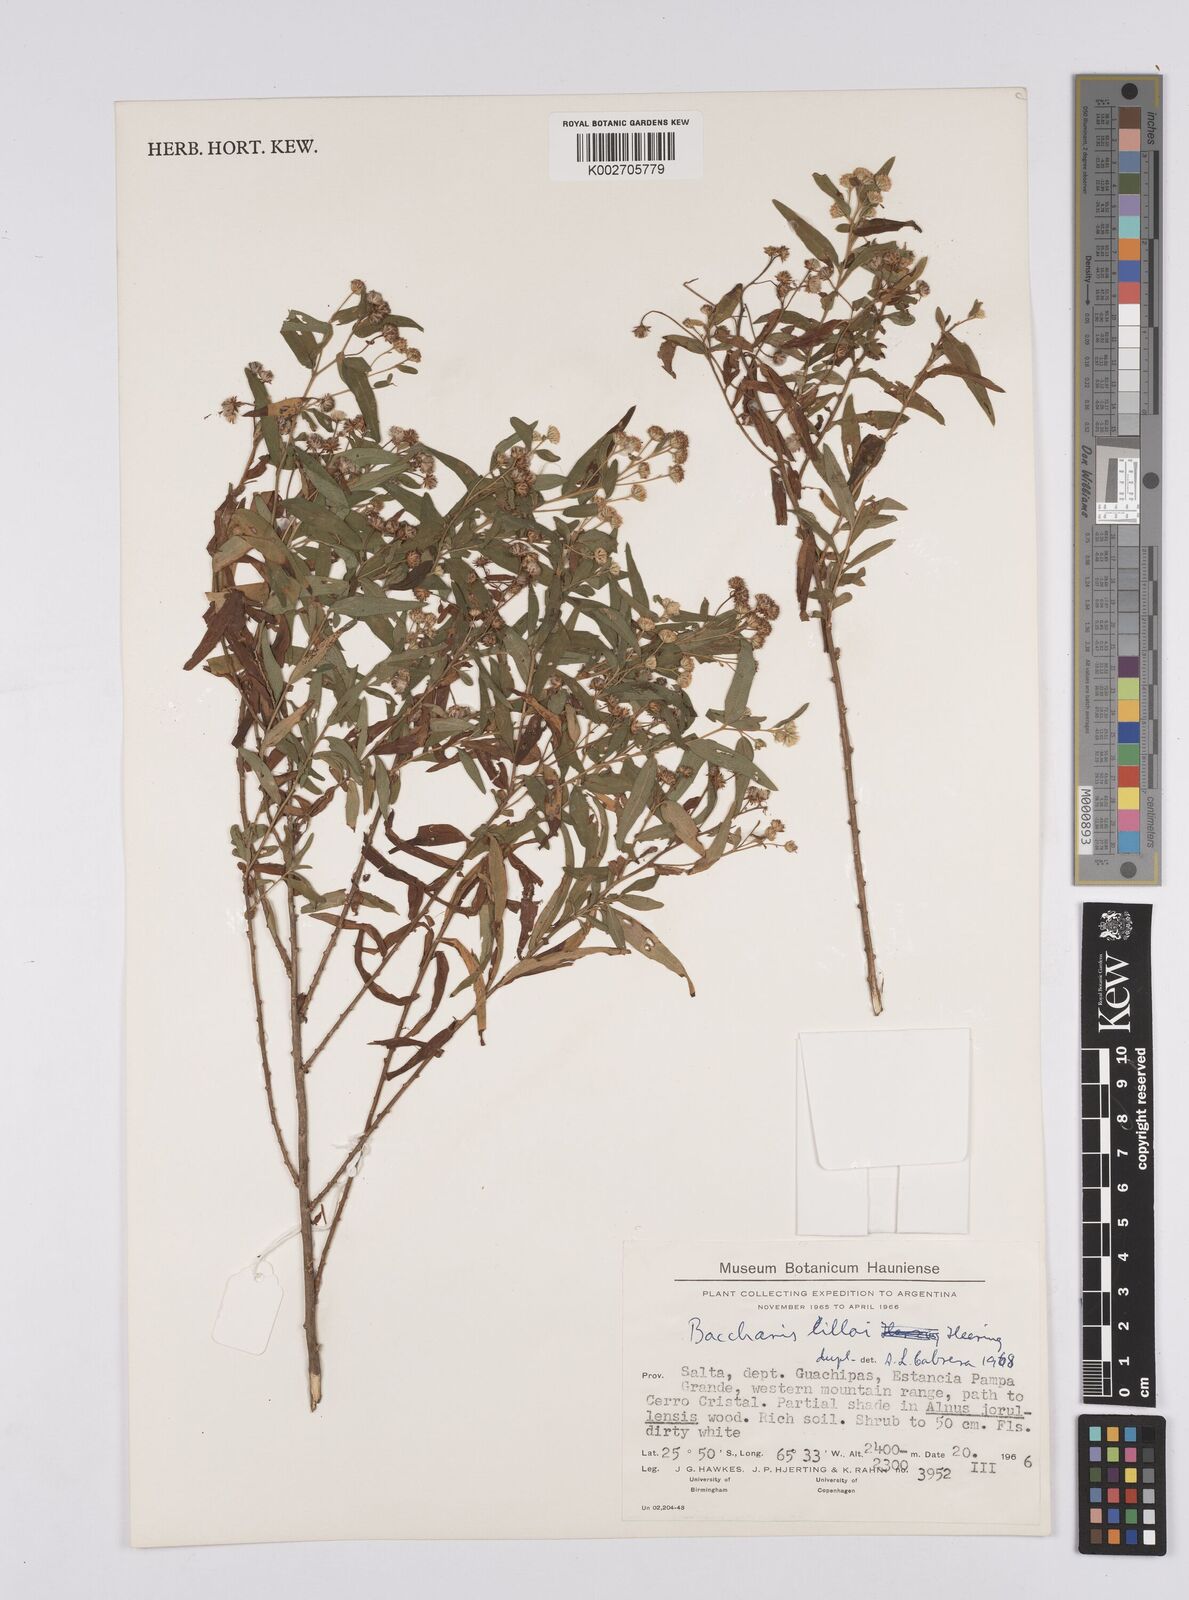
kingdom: Plantae
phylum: Tracheophyta
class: Magnoliopsida
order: Asterales
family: Asteraceae
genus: Baccharis
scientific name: Baccharis lilloi
